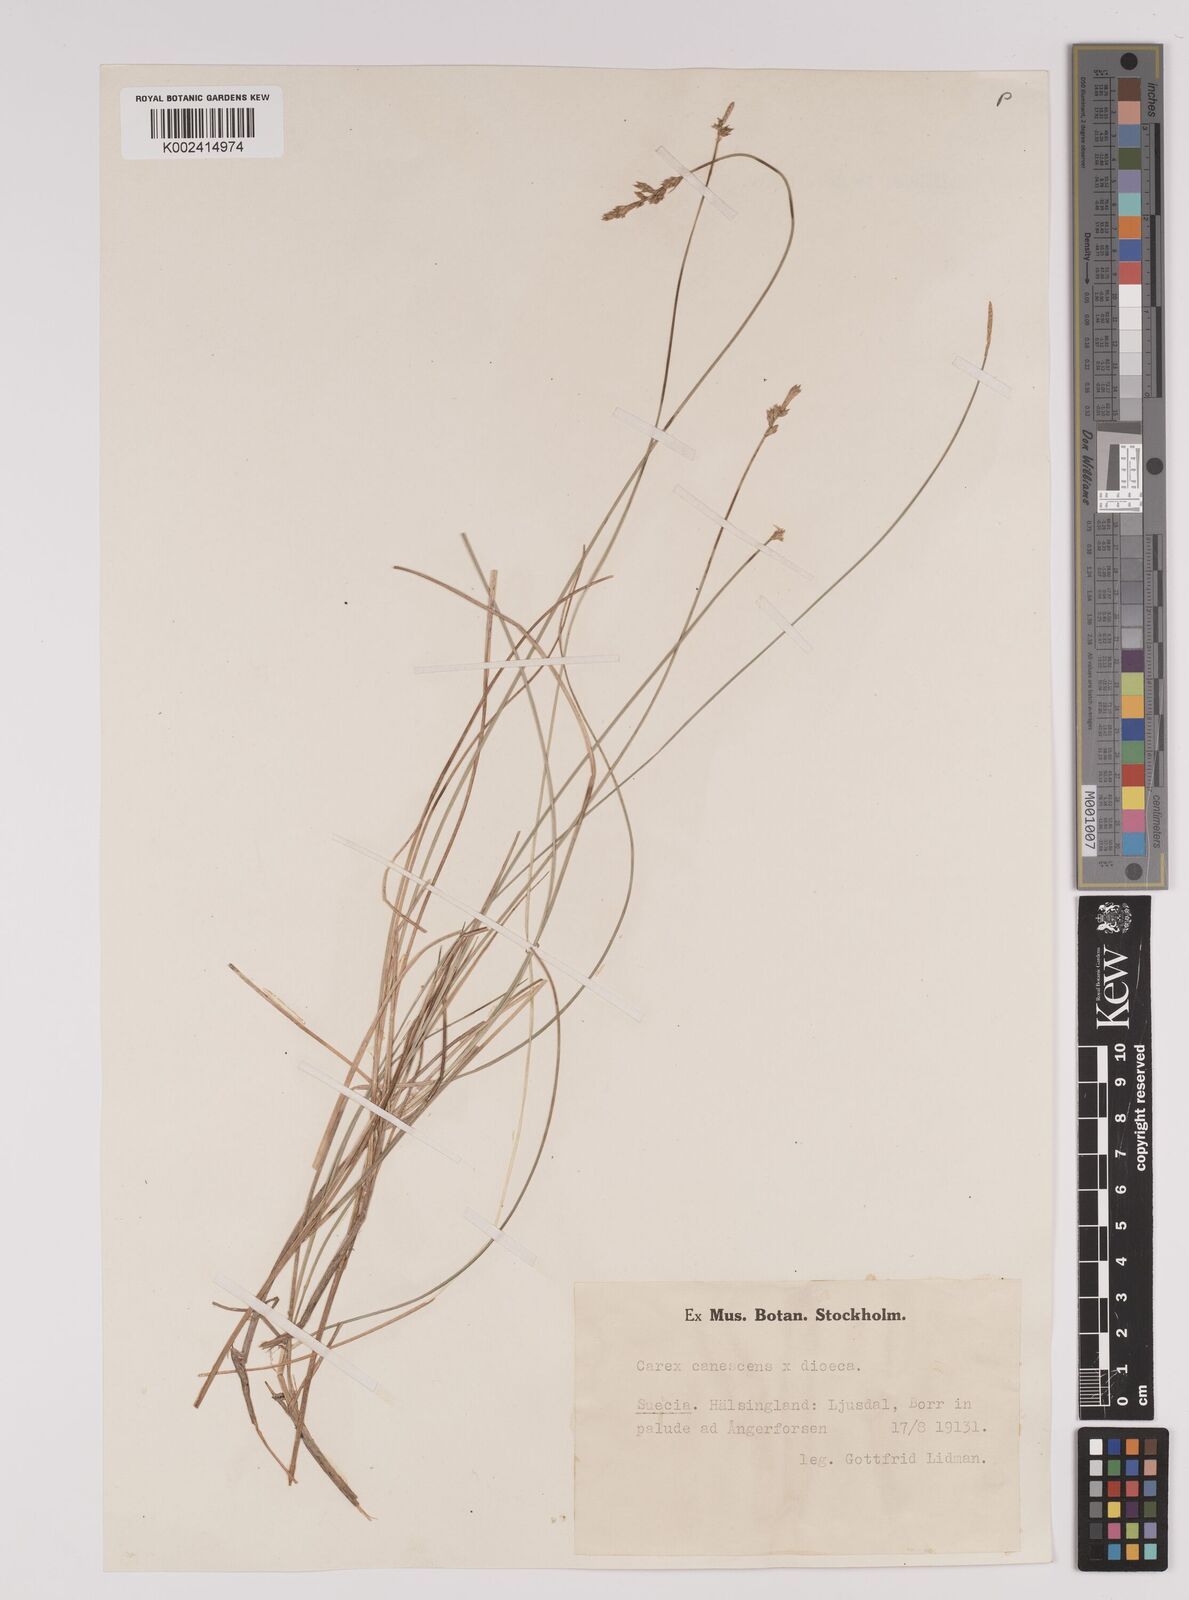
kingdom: Plantae
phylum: Tracheophyta
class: Liliopsida
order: Poales
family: Cyperaceae
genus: Carex
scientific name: Carex dioica
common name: Dioecious sedge
